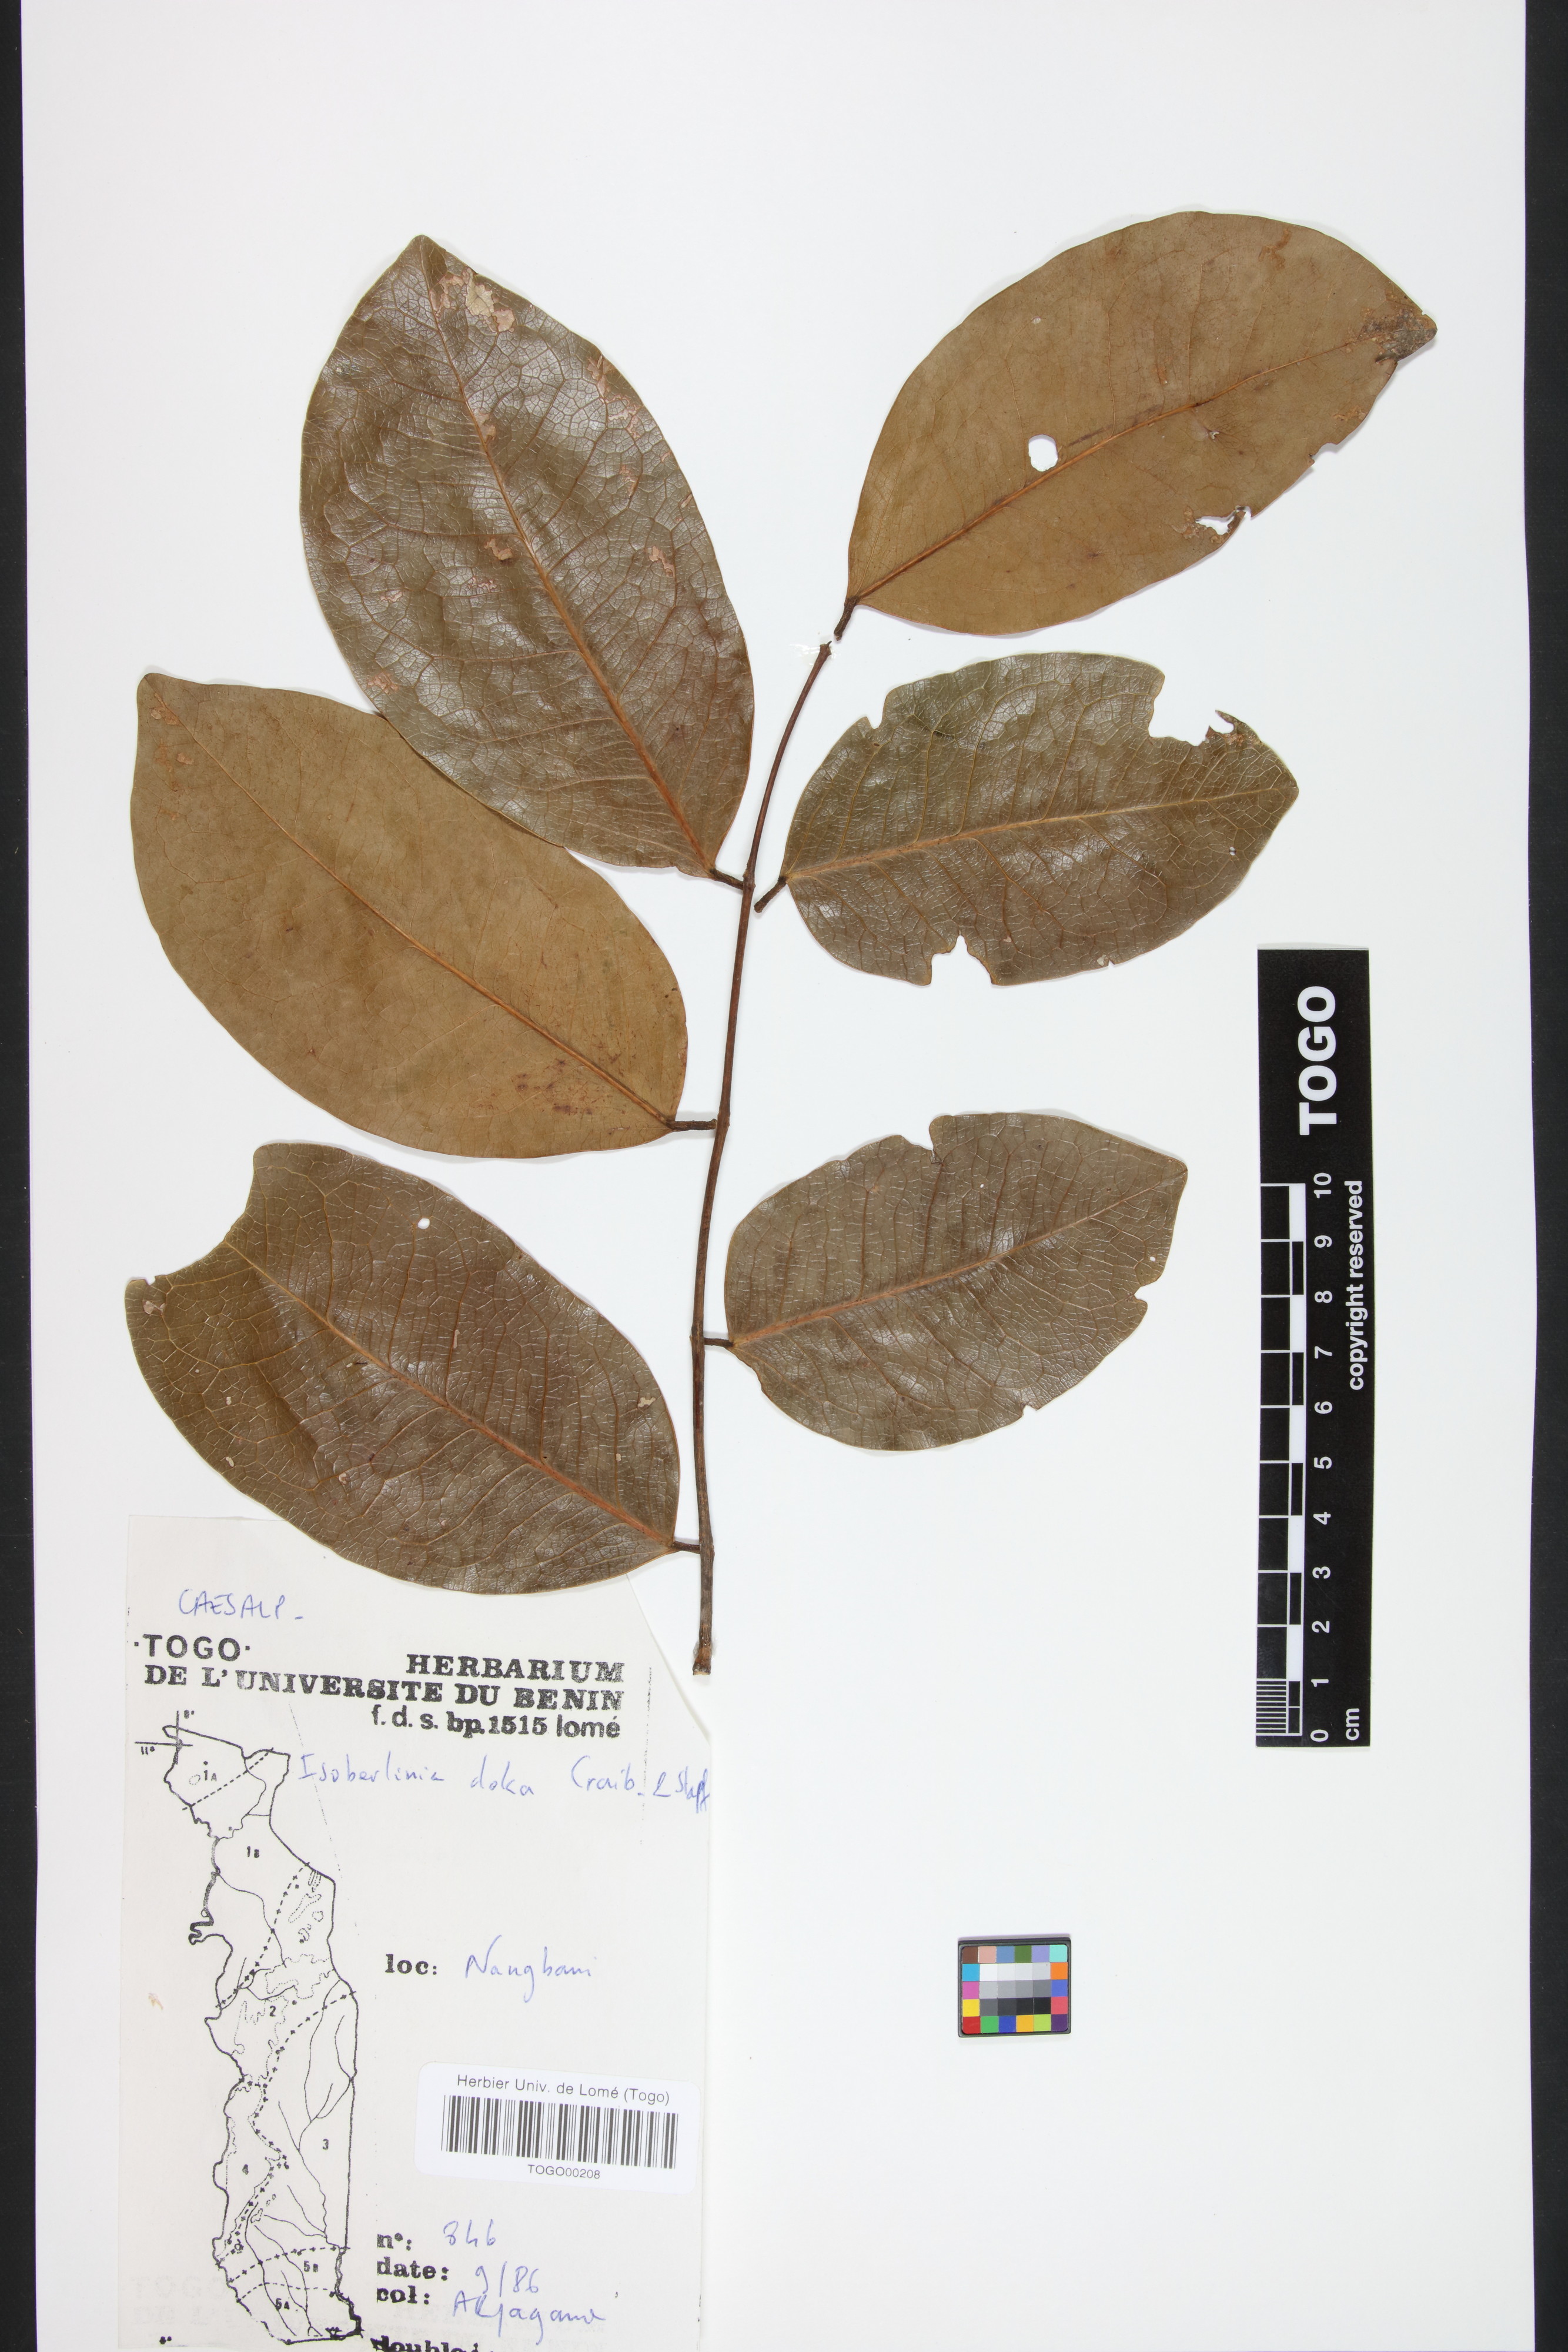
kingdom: Plantae
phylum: Tracheophyta
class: Magnoliopsida
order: Fabales
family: Fabaceae
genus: Isoberlinia
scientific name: Isoberlinia doka
